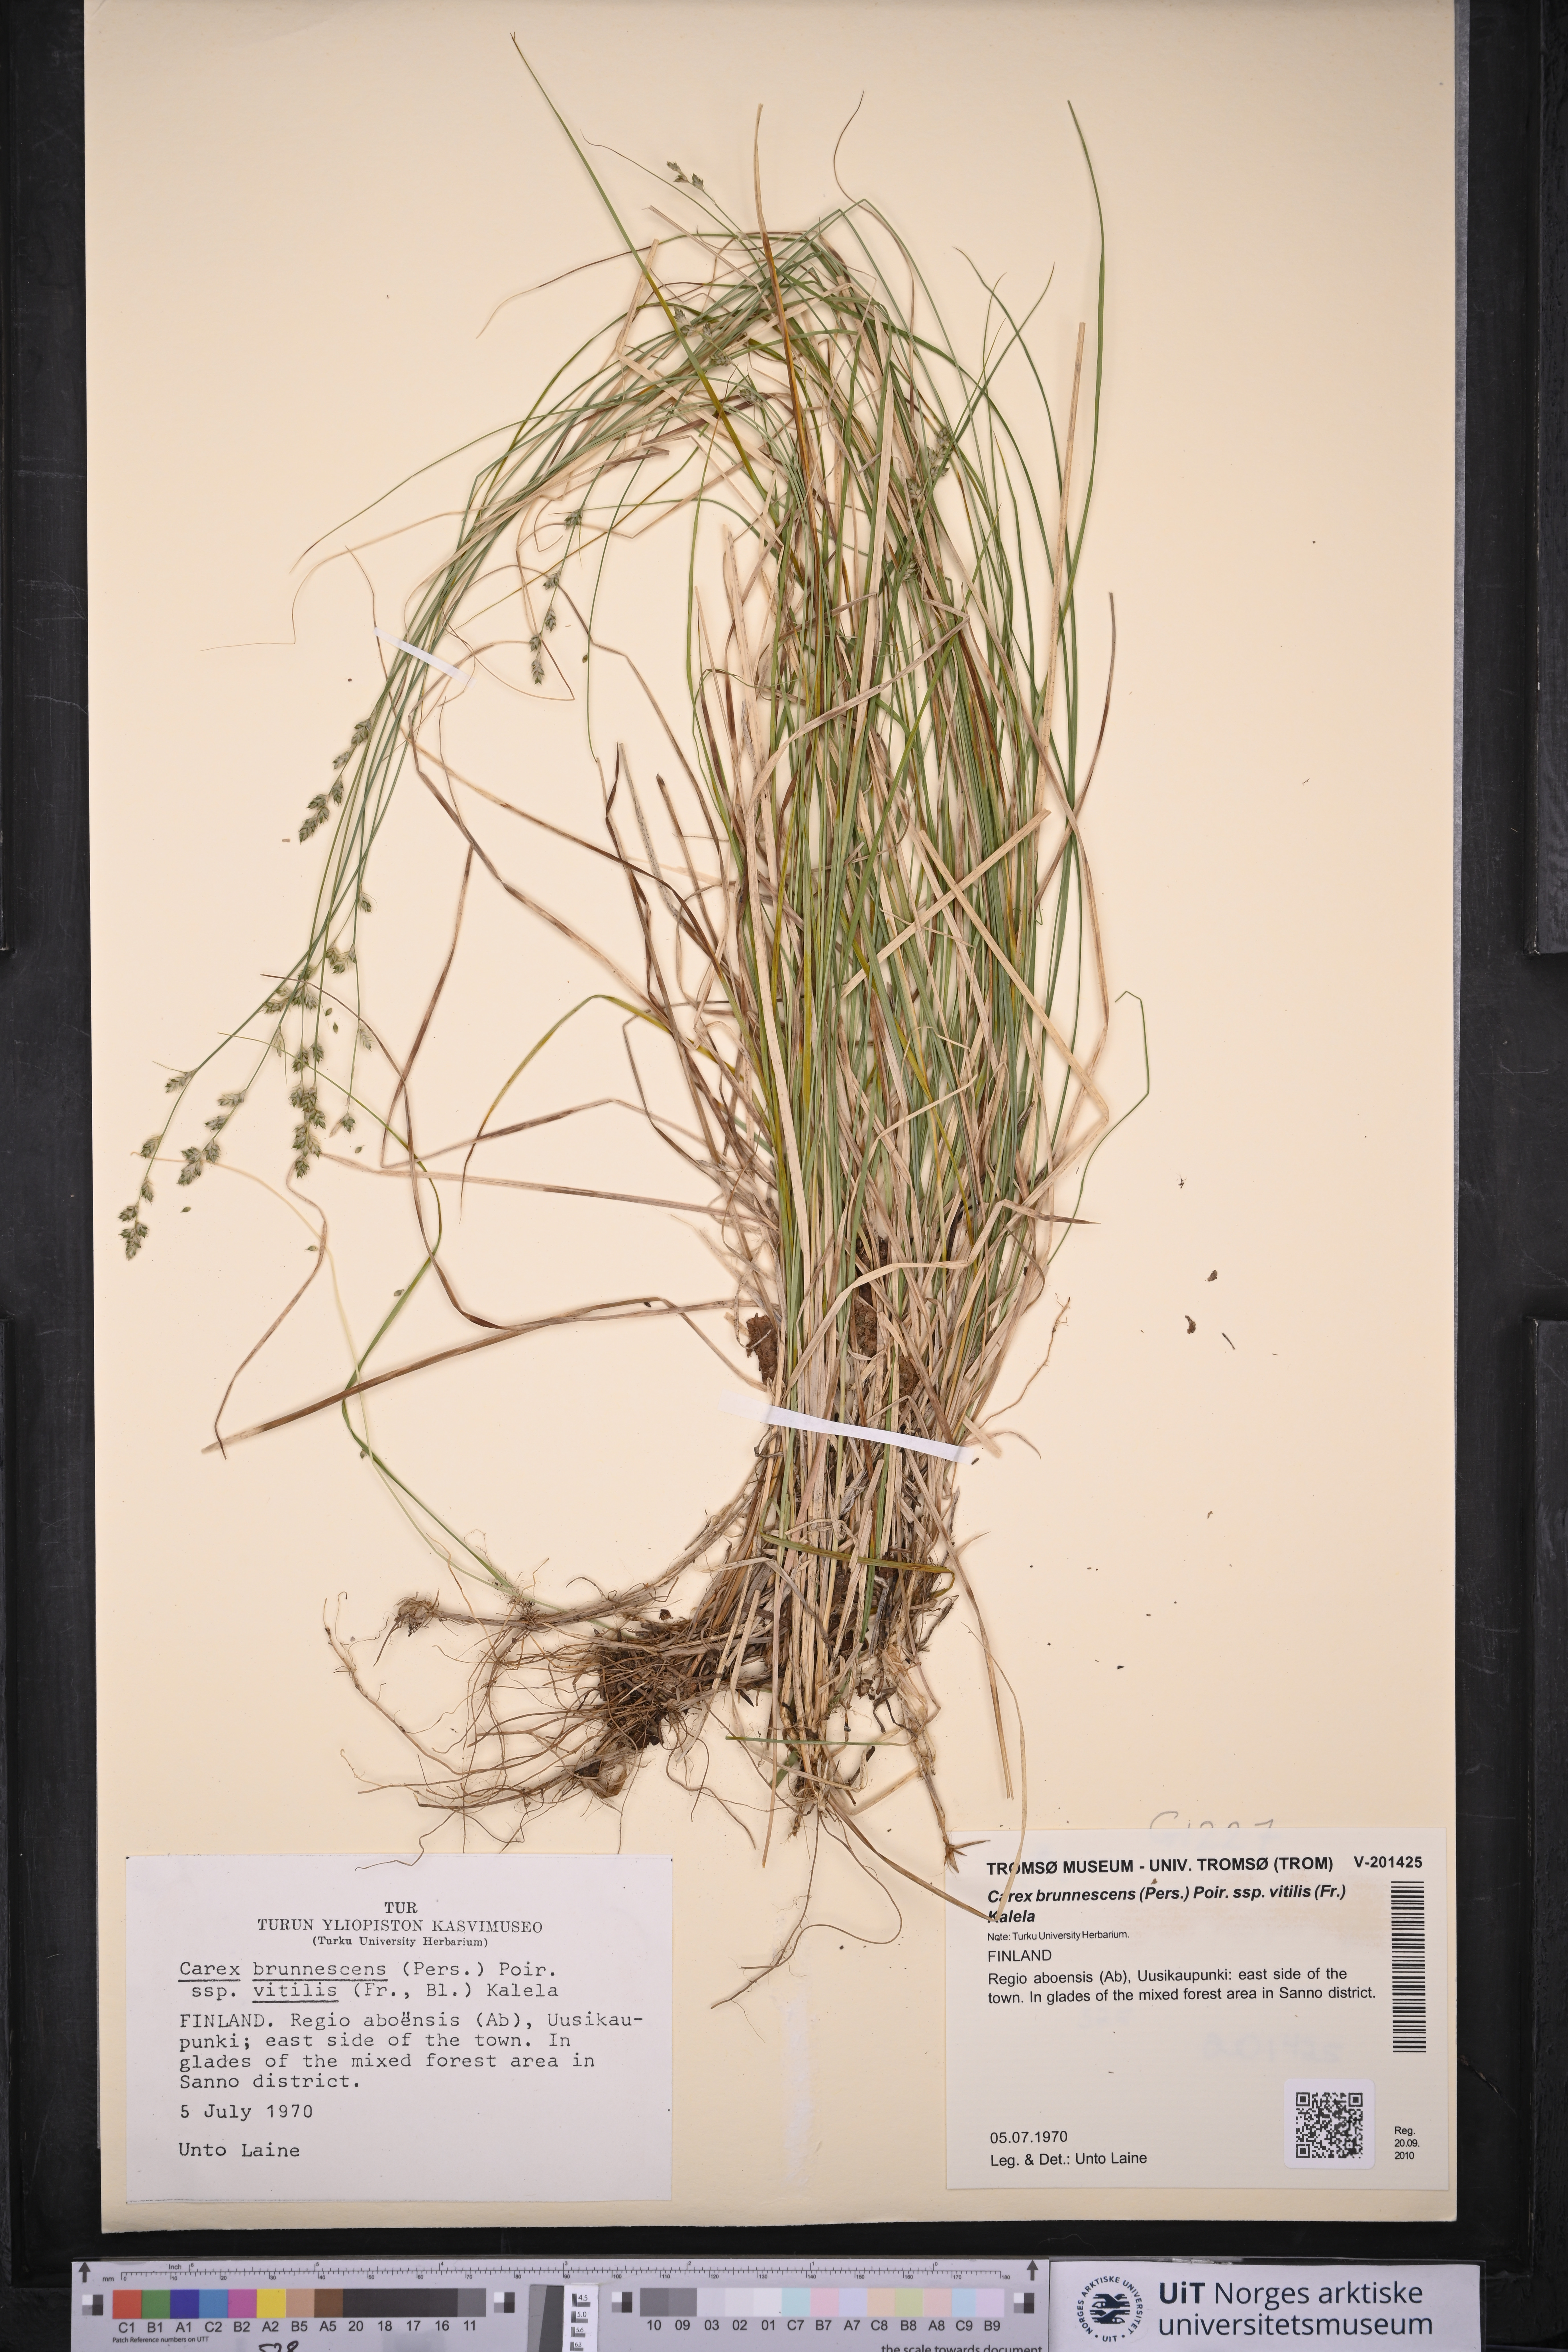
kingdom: Plantae
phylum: Tracheophyta
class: Liliopsida
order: Poales
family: Cyperaceae
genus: Carex
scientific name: Carex brunnescens
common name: Brown sedge
